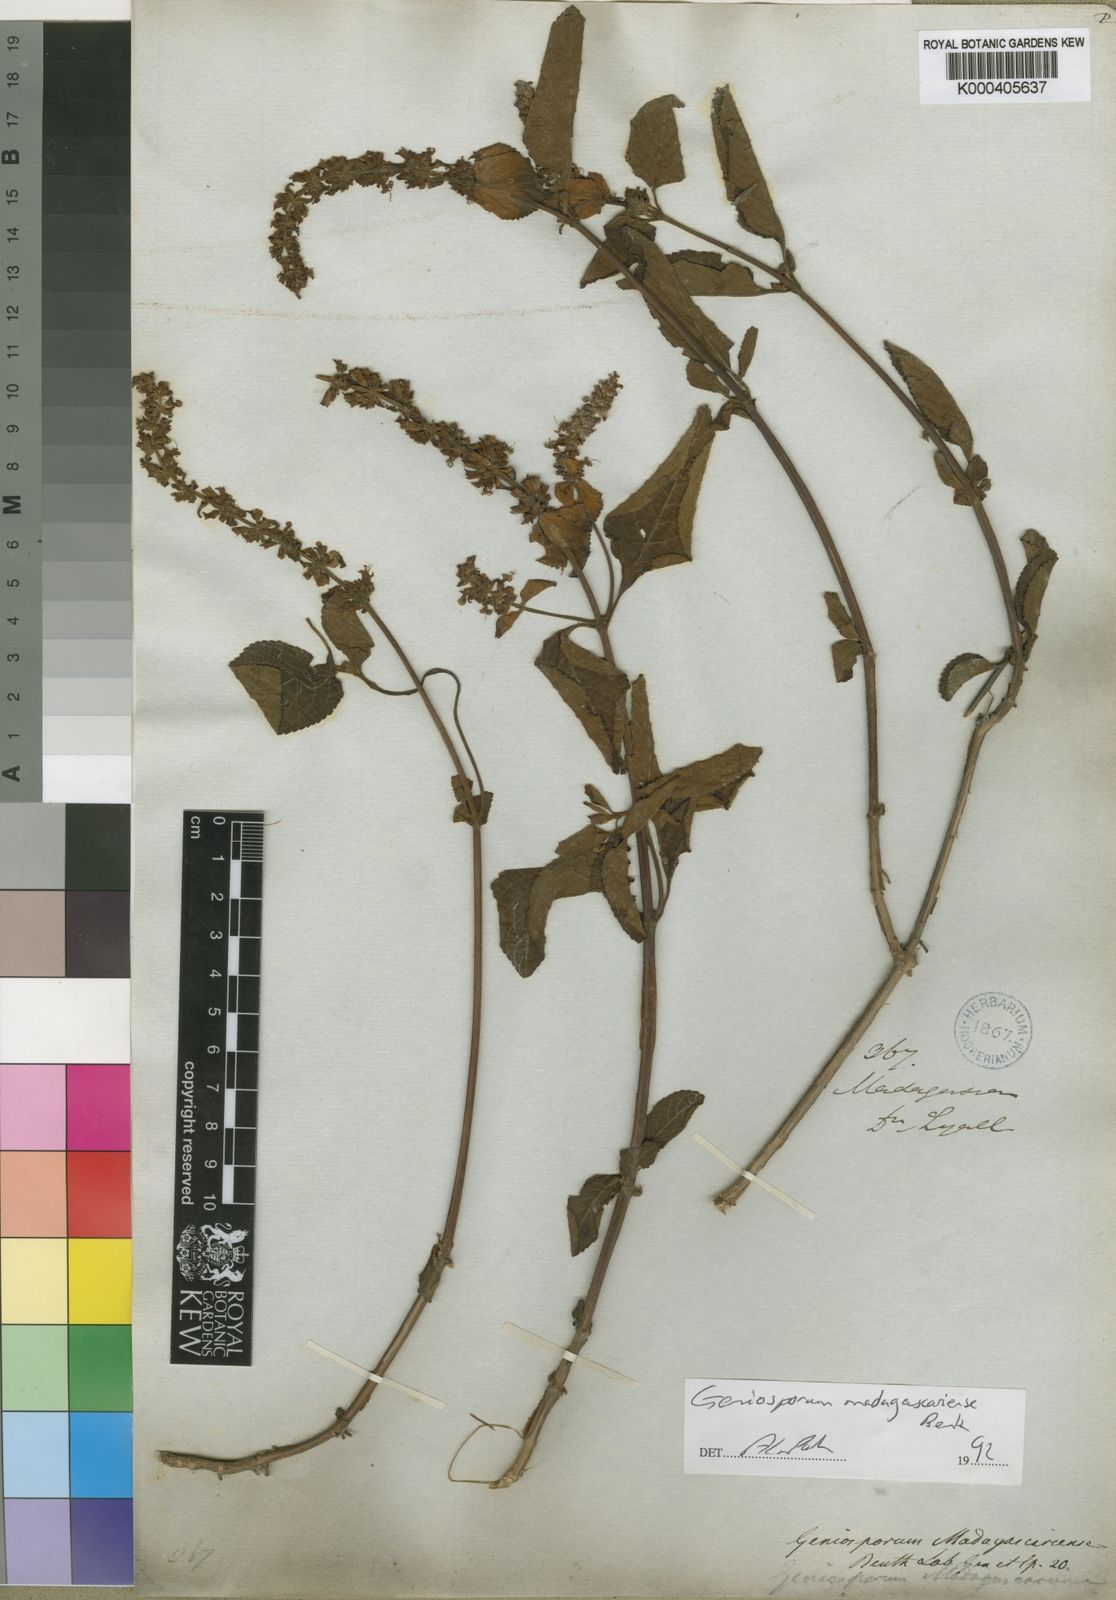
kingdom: Plantae
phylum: Tracheophyta
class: Magnoliopsida
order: Lamiales
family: Lamiaceae
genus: Platostoma
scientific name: Platostoma madagascariense
